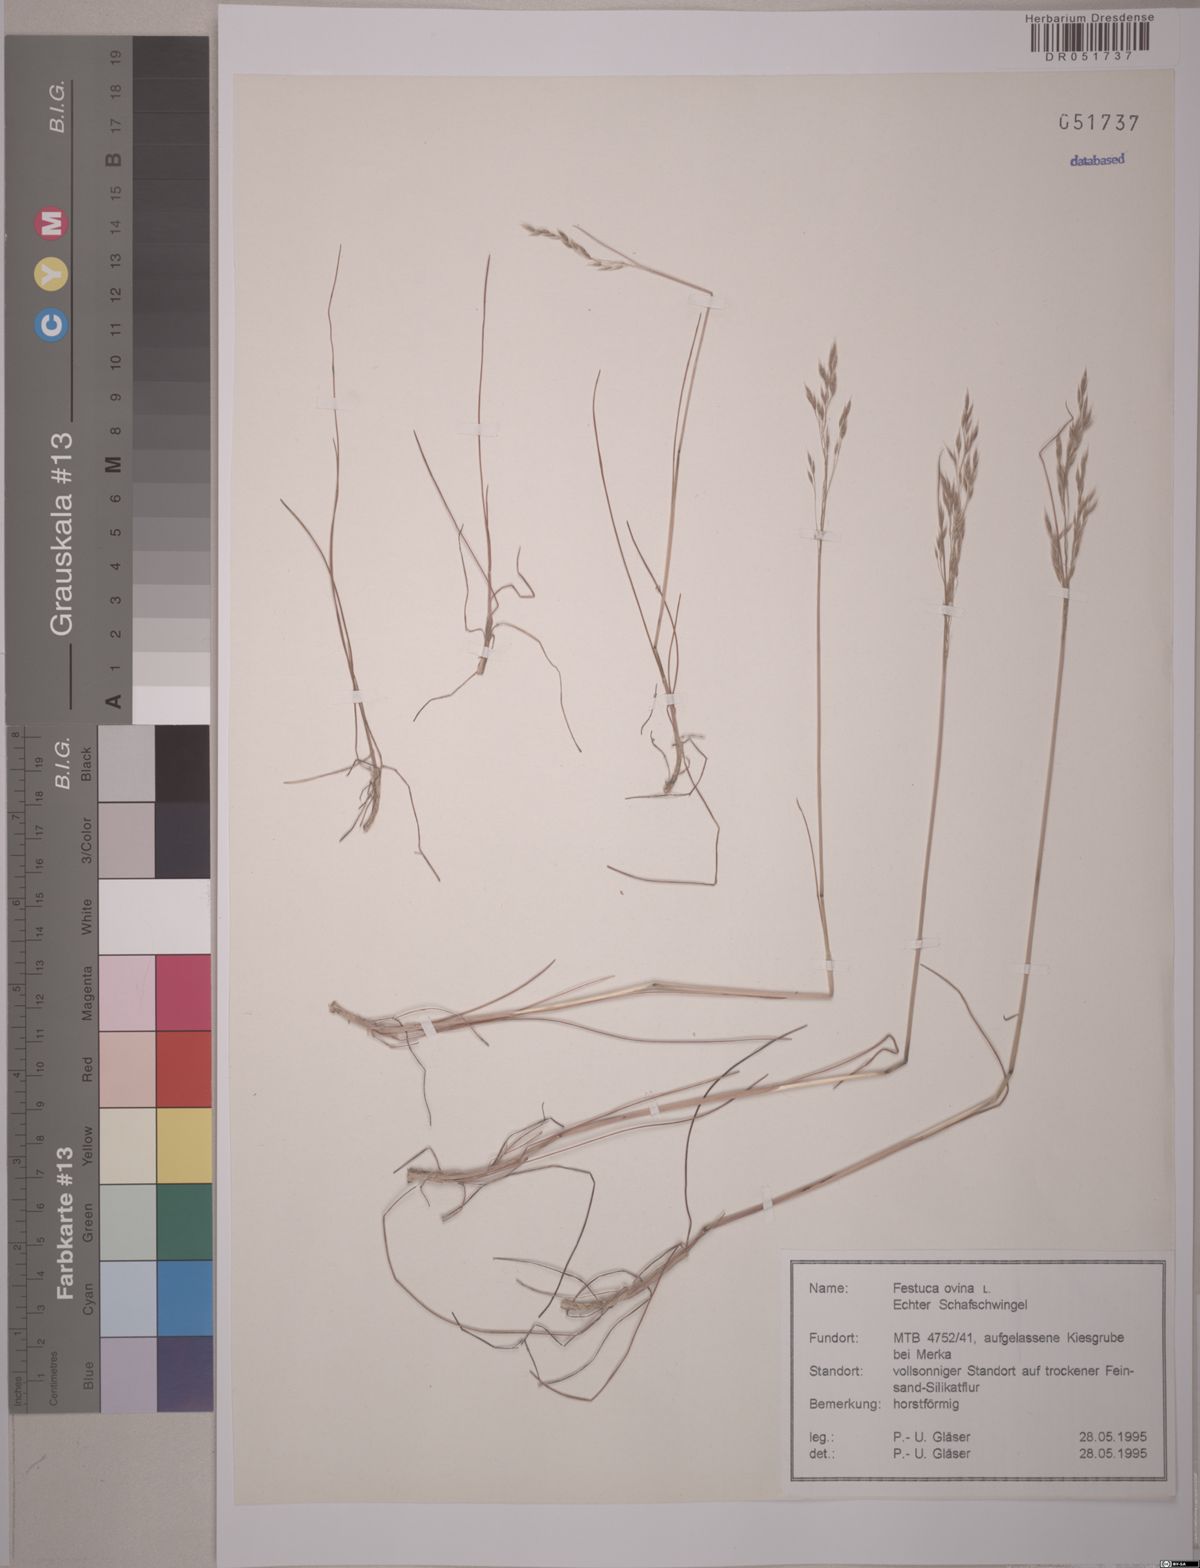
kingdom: Plantae
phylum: Tracheophyta
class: Liliopsida
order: Poales
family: Poaceae
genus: Festuca
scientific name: Festuca ovina
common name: Sheep fescue
